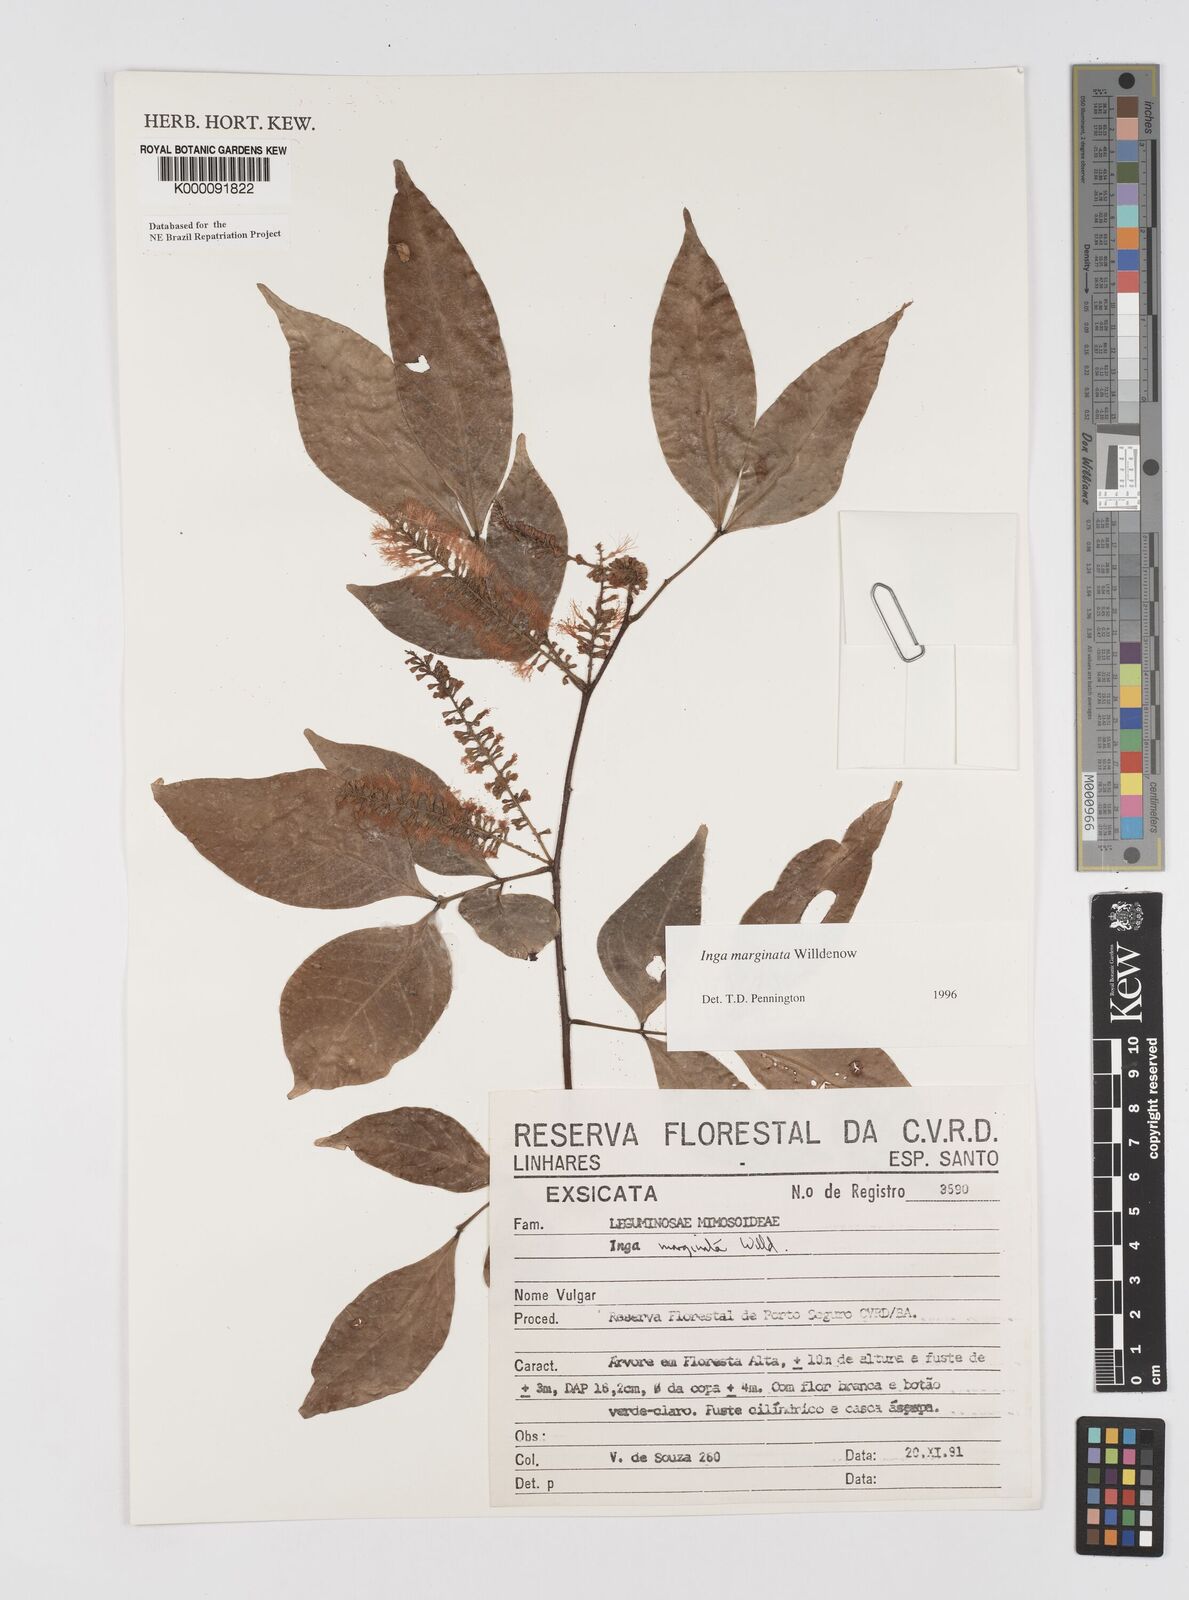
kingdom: Plantae
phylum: Tracheophyta
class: Magnoliopsida
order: Fabales
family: Fabaceae
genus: Inga
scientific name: Inga marginata
